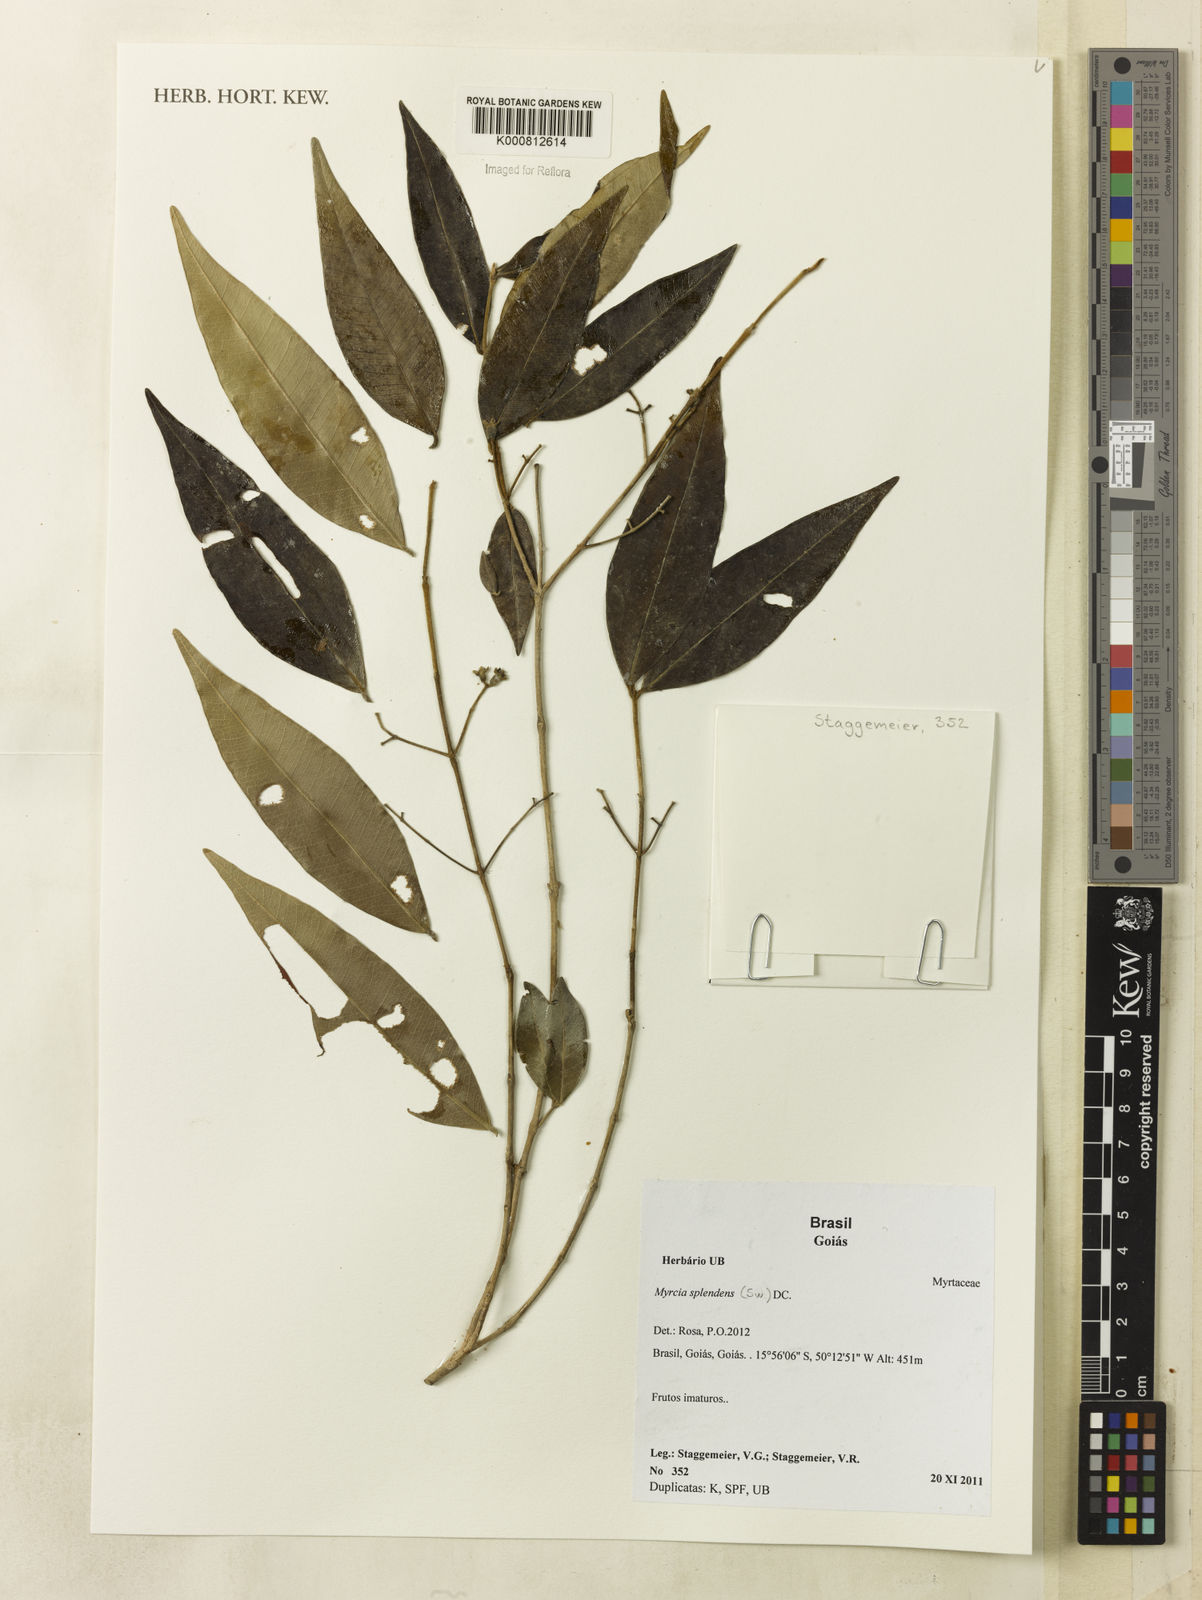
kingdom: Plantae
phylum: Tracheophyta
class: Magnoliopsida
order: Myrtales
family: Myrtaceae
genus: Myrcia
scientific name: Myrcia splendens
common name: Surinam cherry
